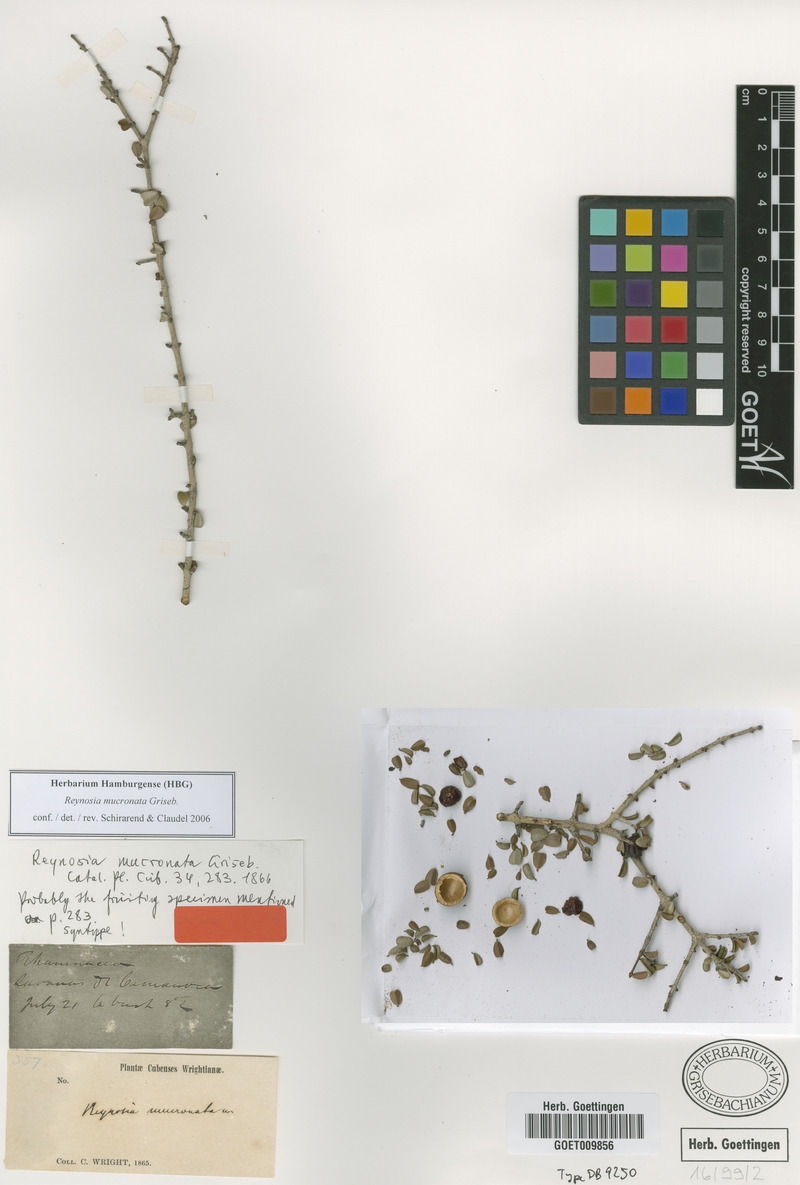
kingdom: Plantae
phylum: Tracheophyta
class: Magnoliopsida
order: Rosales
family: Rhamnaceae
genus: Reynosia
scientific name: Reynosia mucronata
